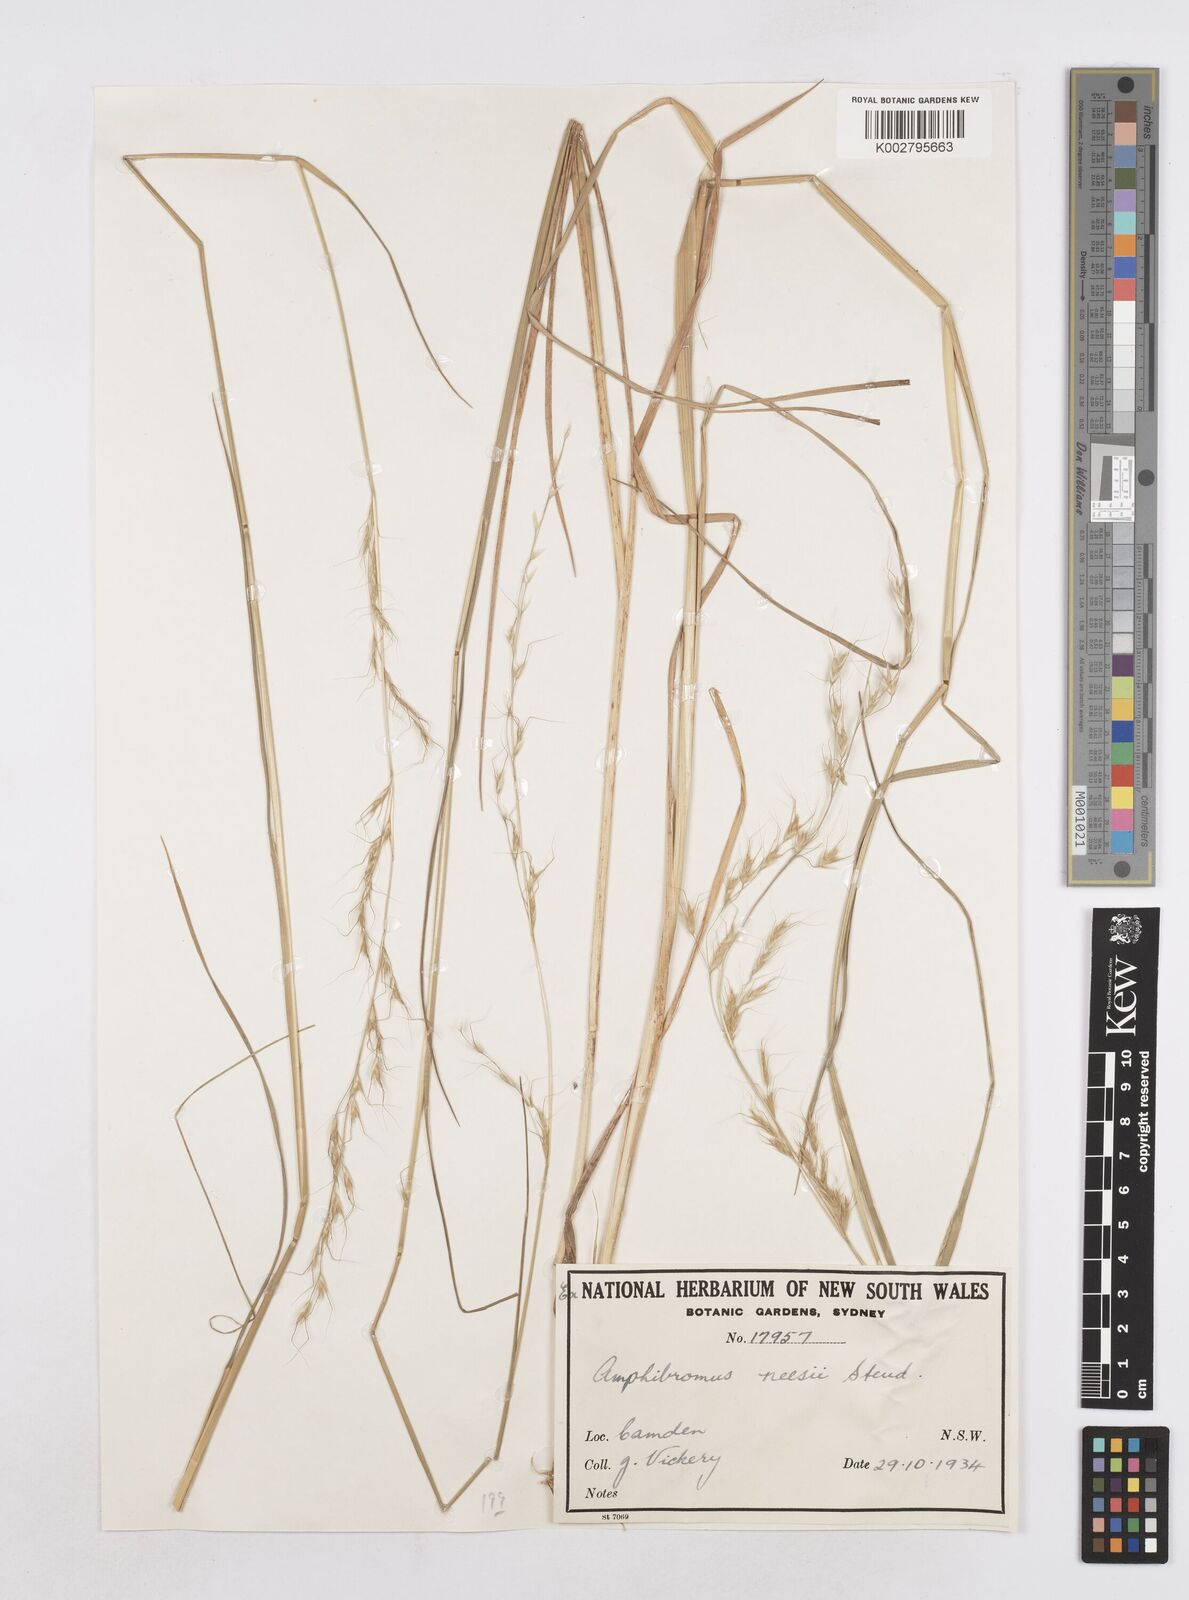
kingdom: Plantae
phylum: Tracheophyta
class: Liliopsida
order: Poales
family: Poaceae
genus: Amphibromus
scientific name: Amphibromus neesii
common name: Australian wallaby grass
